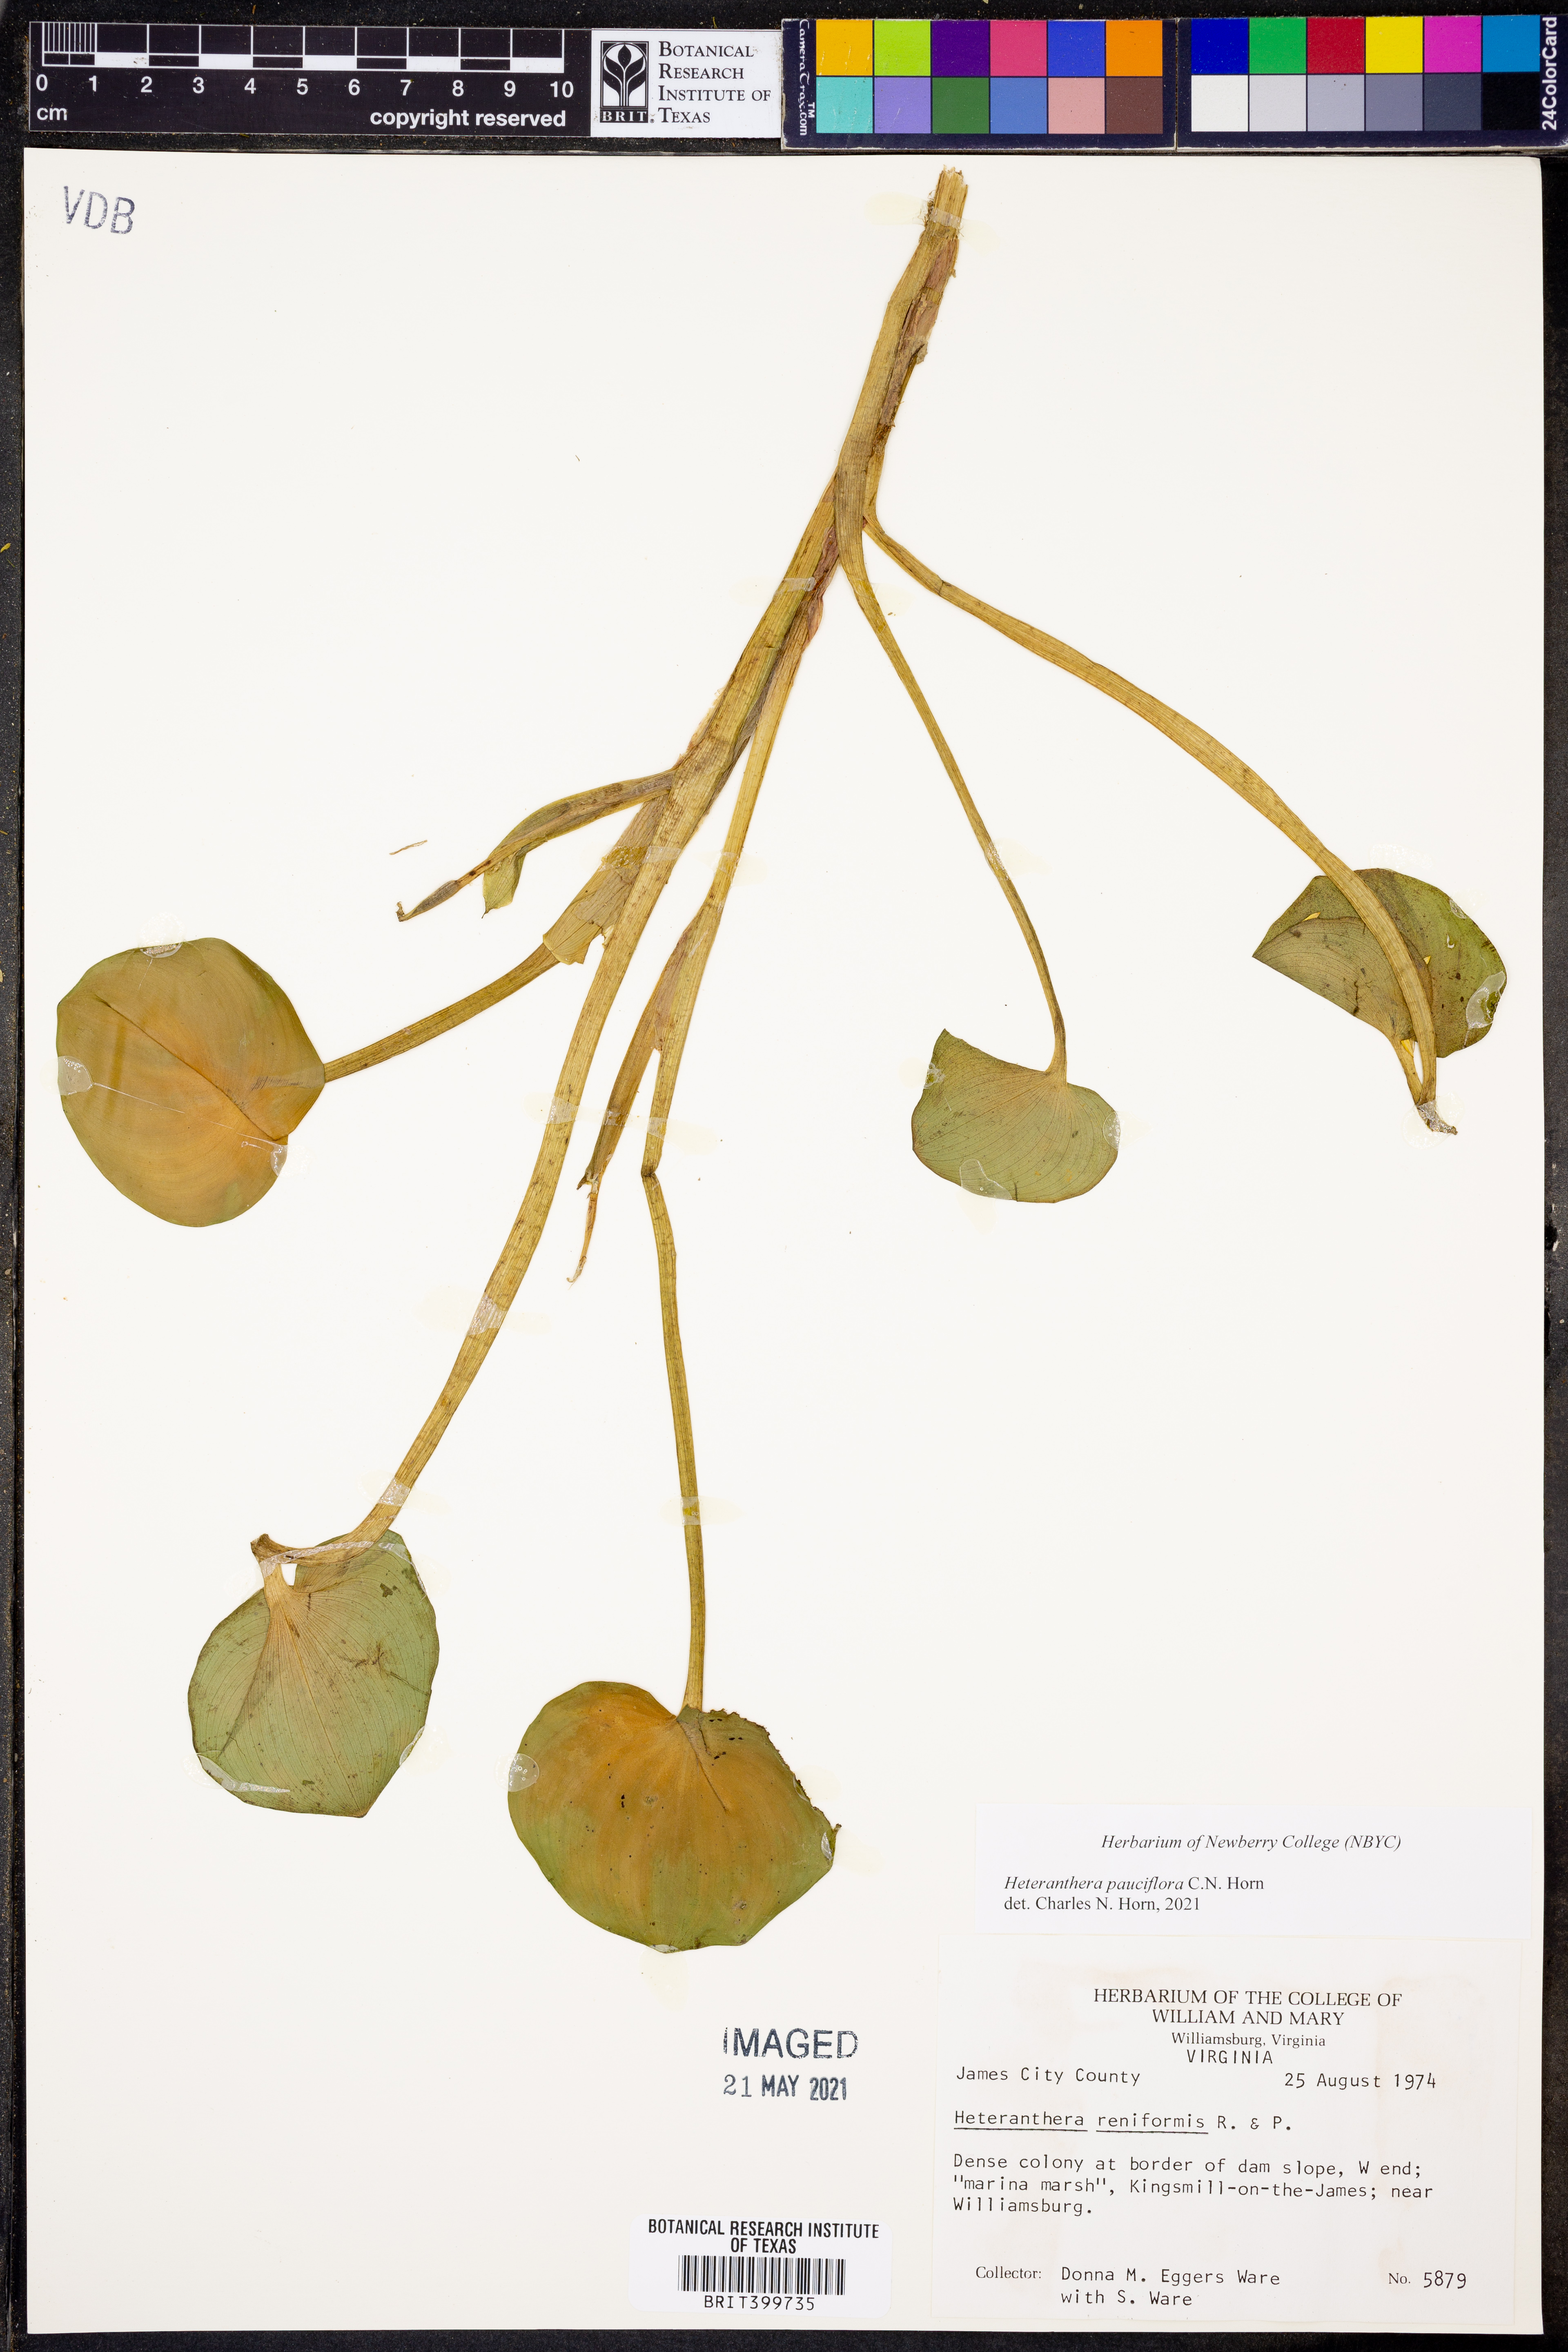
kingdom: Plantae
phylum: Tracheophyta
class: Liliopsida
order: Commelinales
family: Pontederiaceae
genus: Heteranthera
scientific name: Heteranthera reniformis
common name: Kidneyleaf mudplantain
